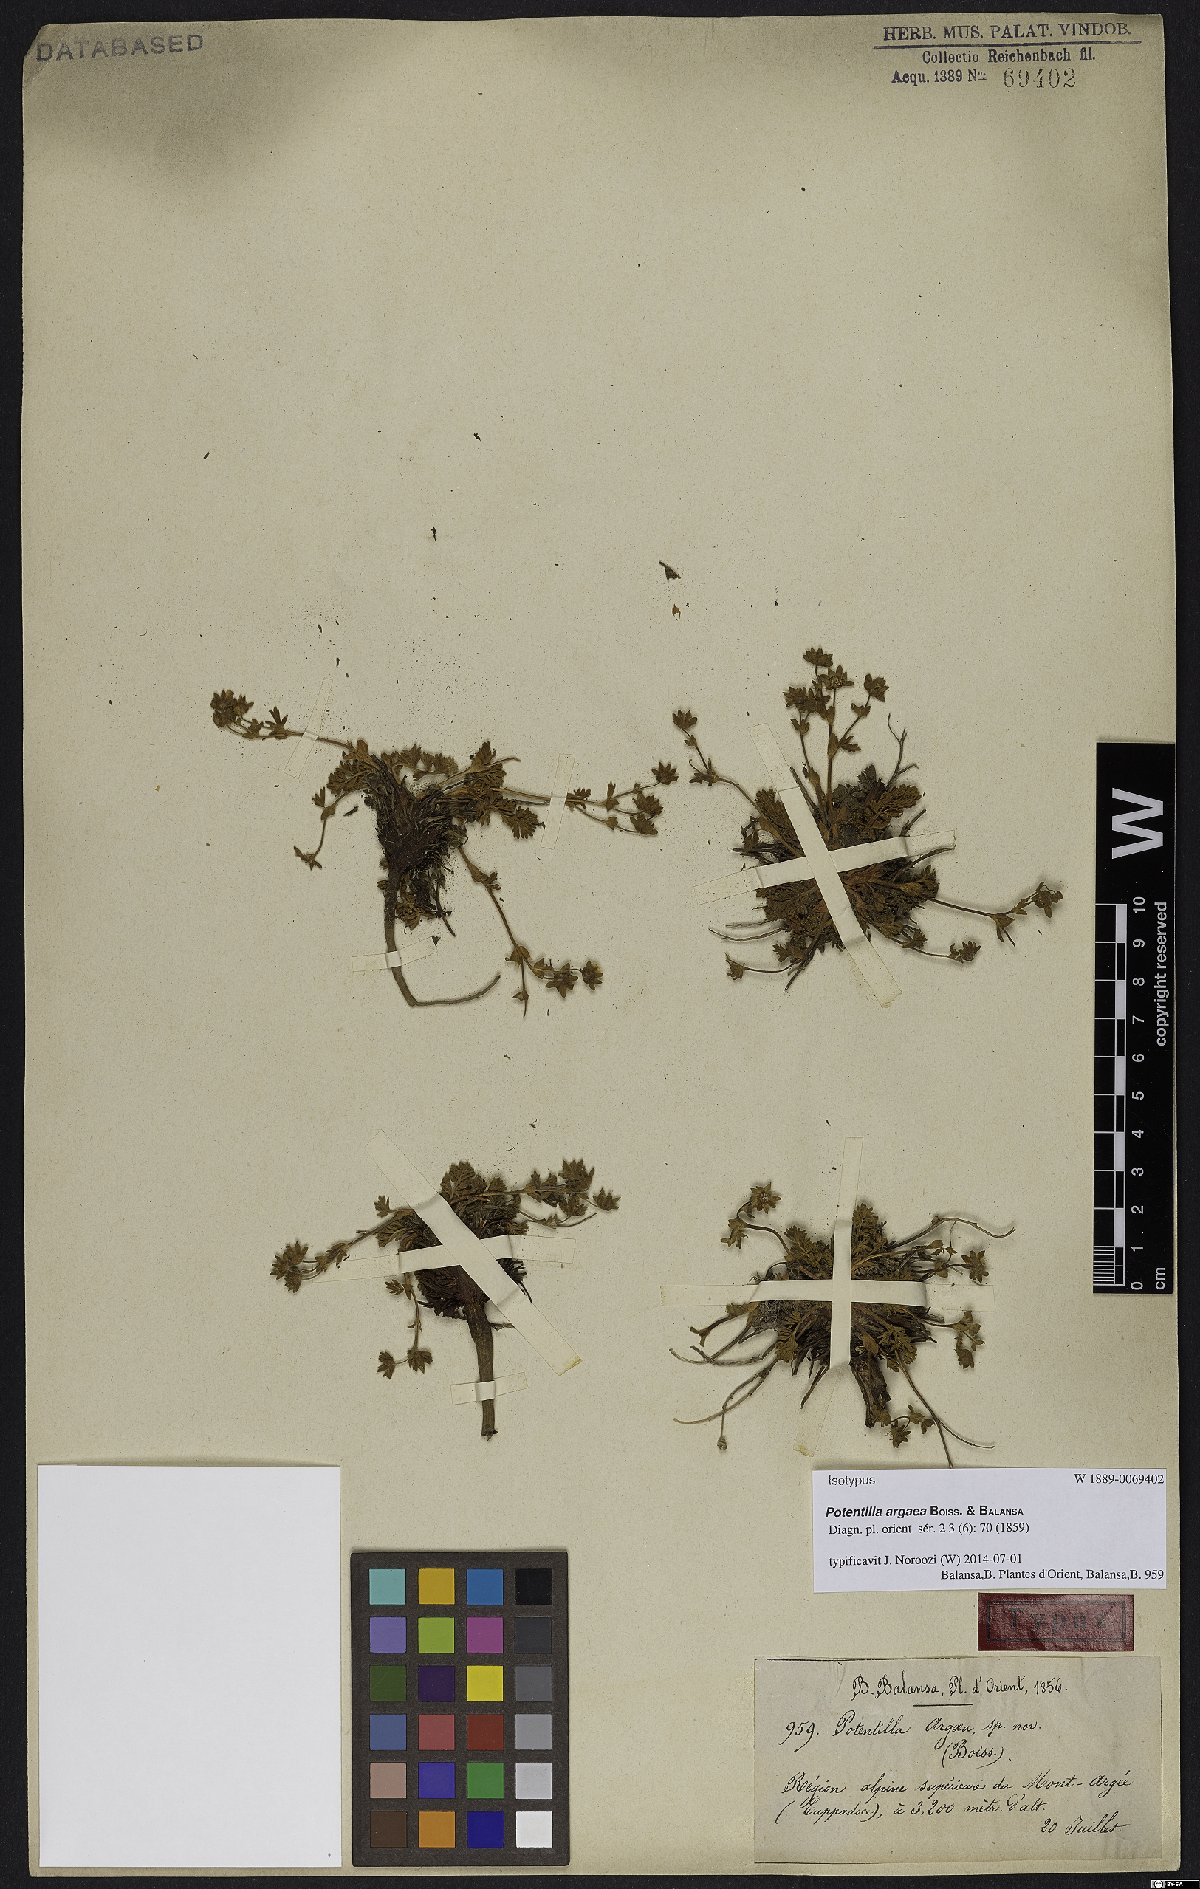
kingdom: Plantae
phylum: Tracheophyta
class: Magnoliopsida
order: Rosales
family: Rosaceae
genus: Potentilla
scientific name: Potentilla argaea
